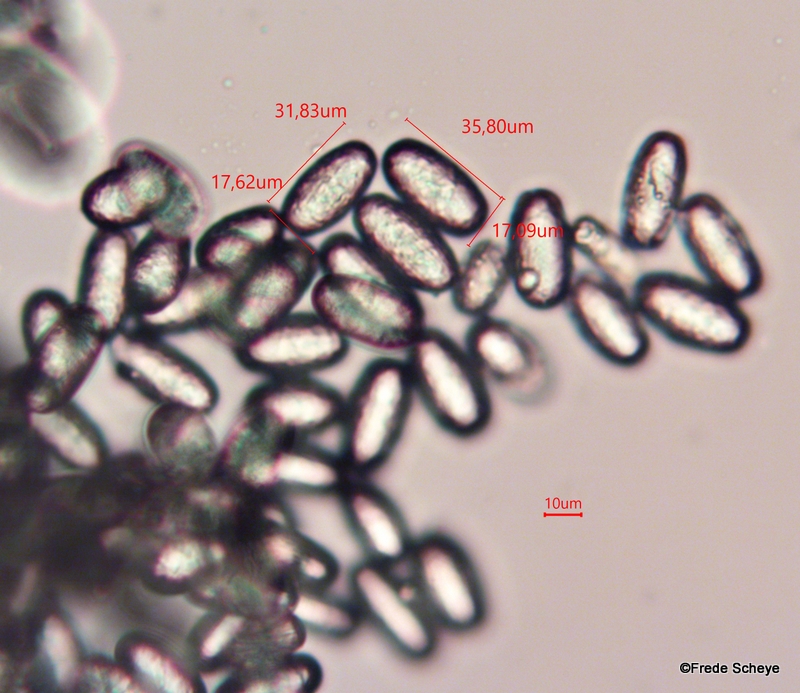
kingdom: Fungi
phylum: Ascomycota
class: Leotiomycetes
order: Helotiales
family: Erysiphaceae
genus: Erysiphe
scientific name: Erysiphe alphitoides
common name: ege-meldug
